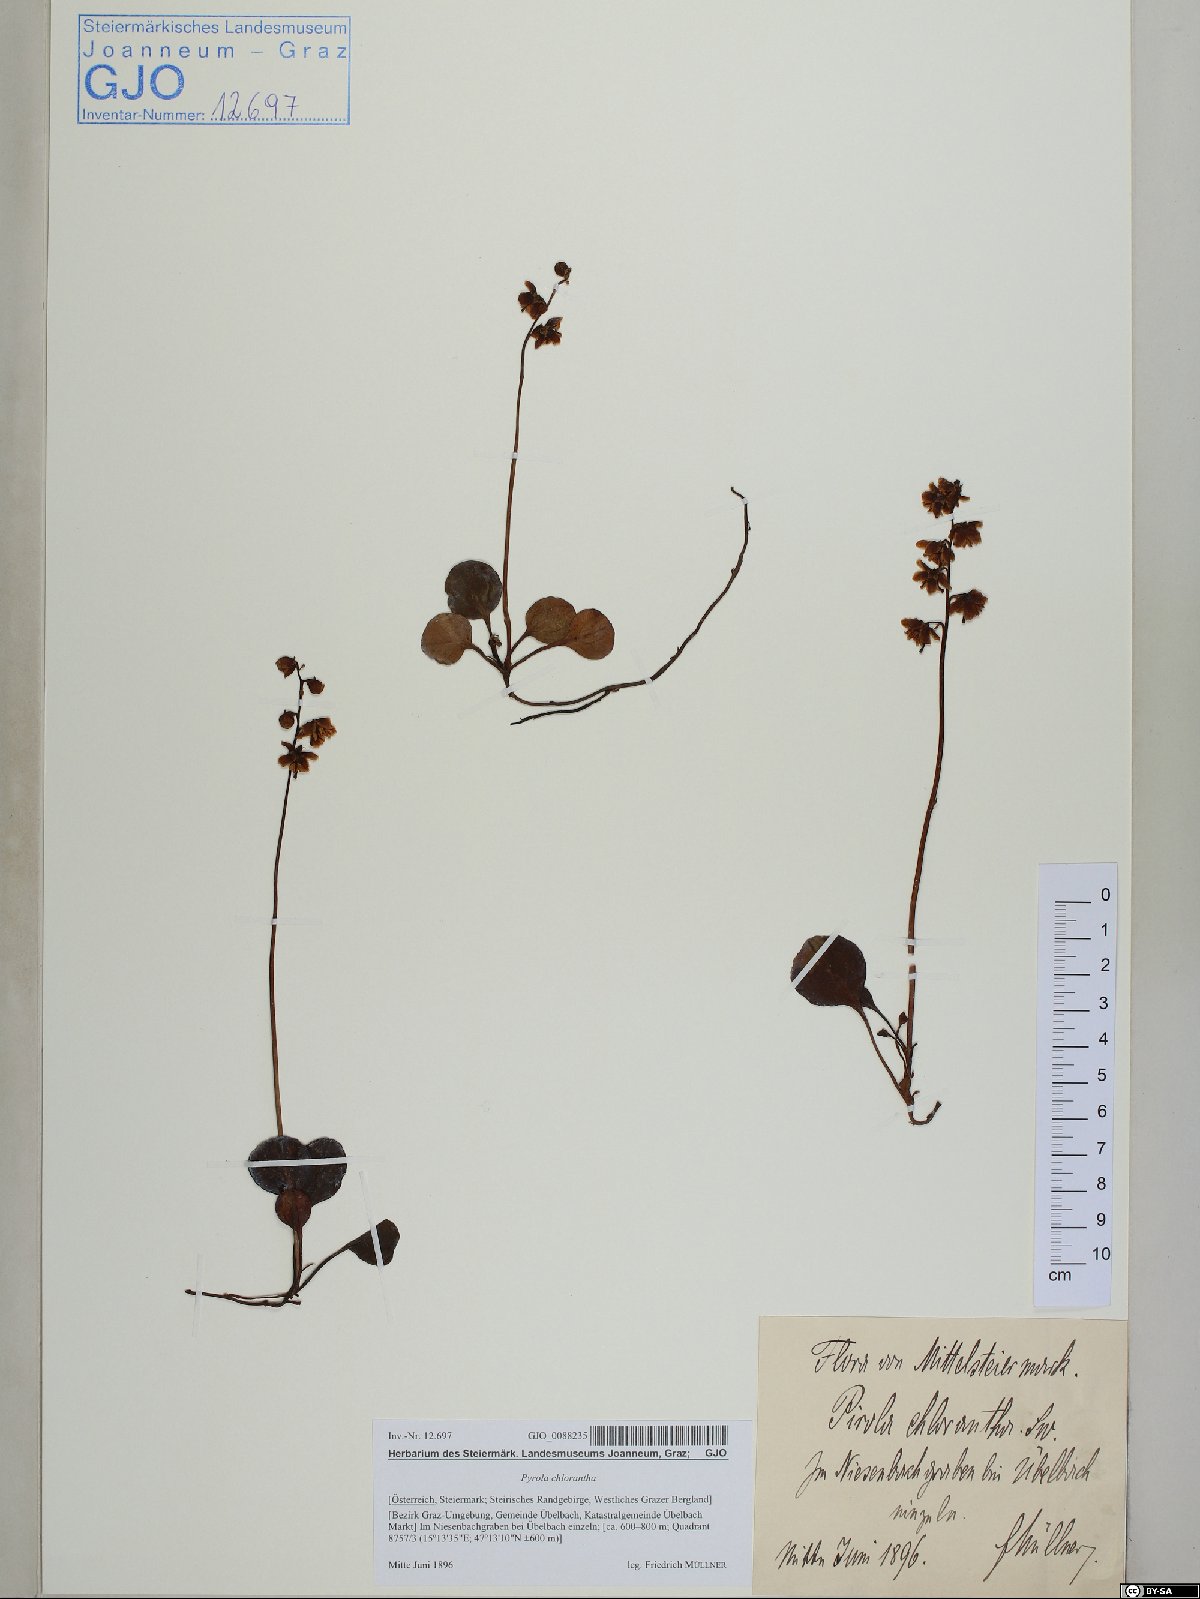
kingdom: Plantae
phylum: Tracheophyta
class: Magnoliopsida
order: Ericales
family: Ericaceae
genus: Pyrola
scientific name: Pyrola chlorantha
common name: Green wintergreen
